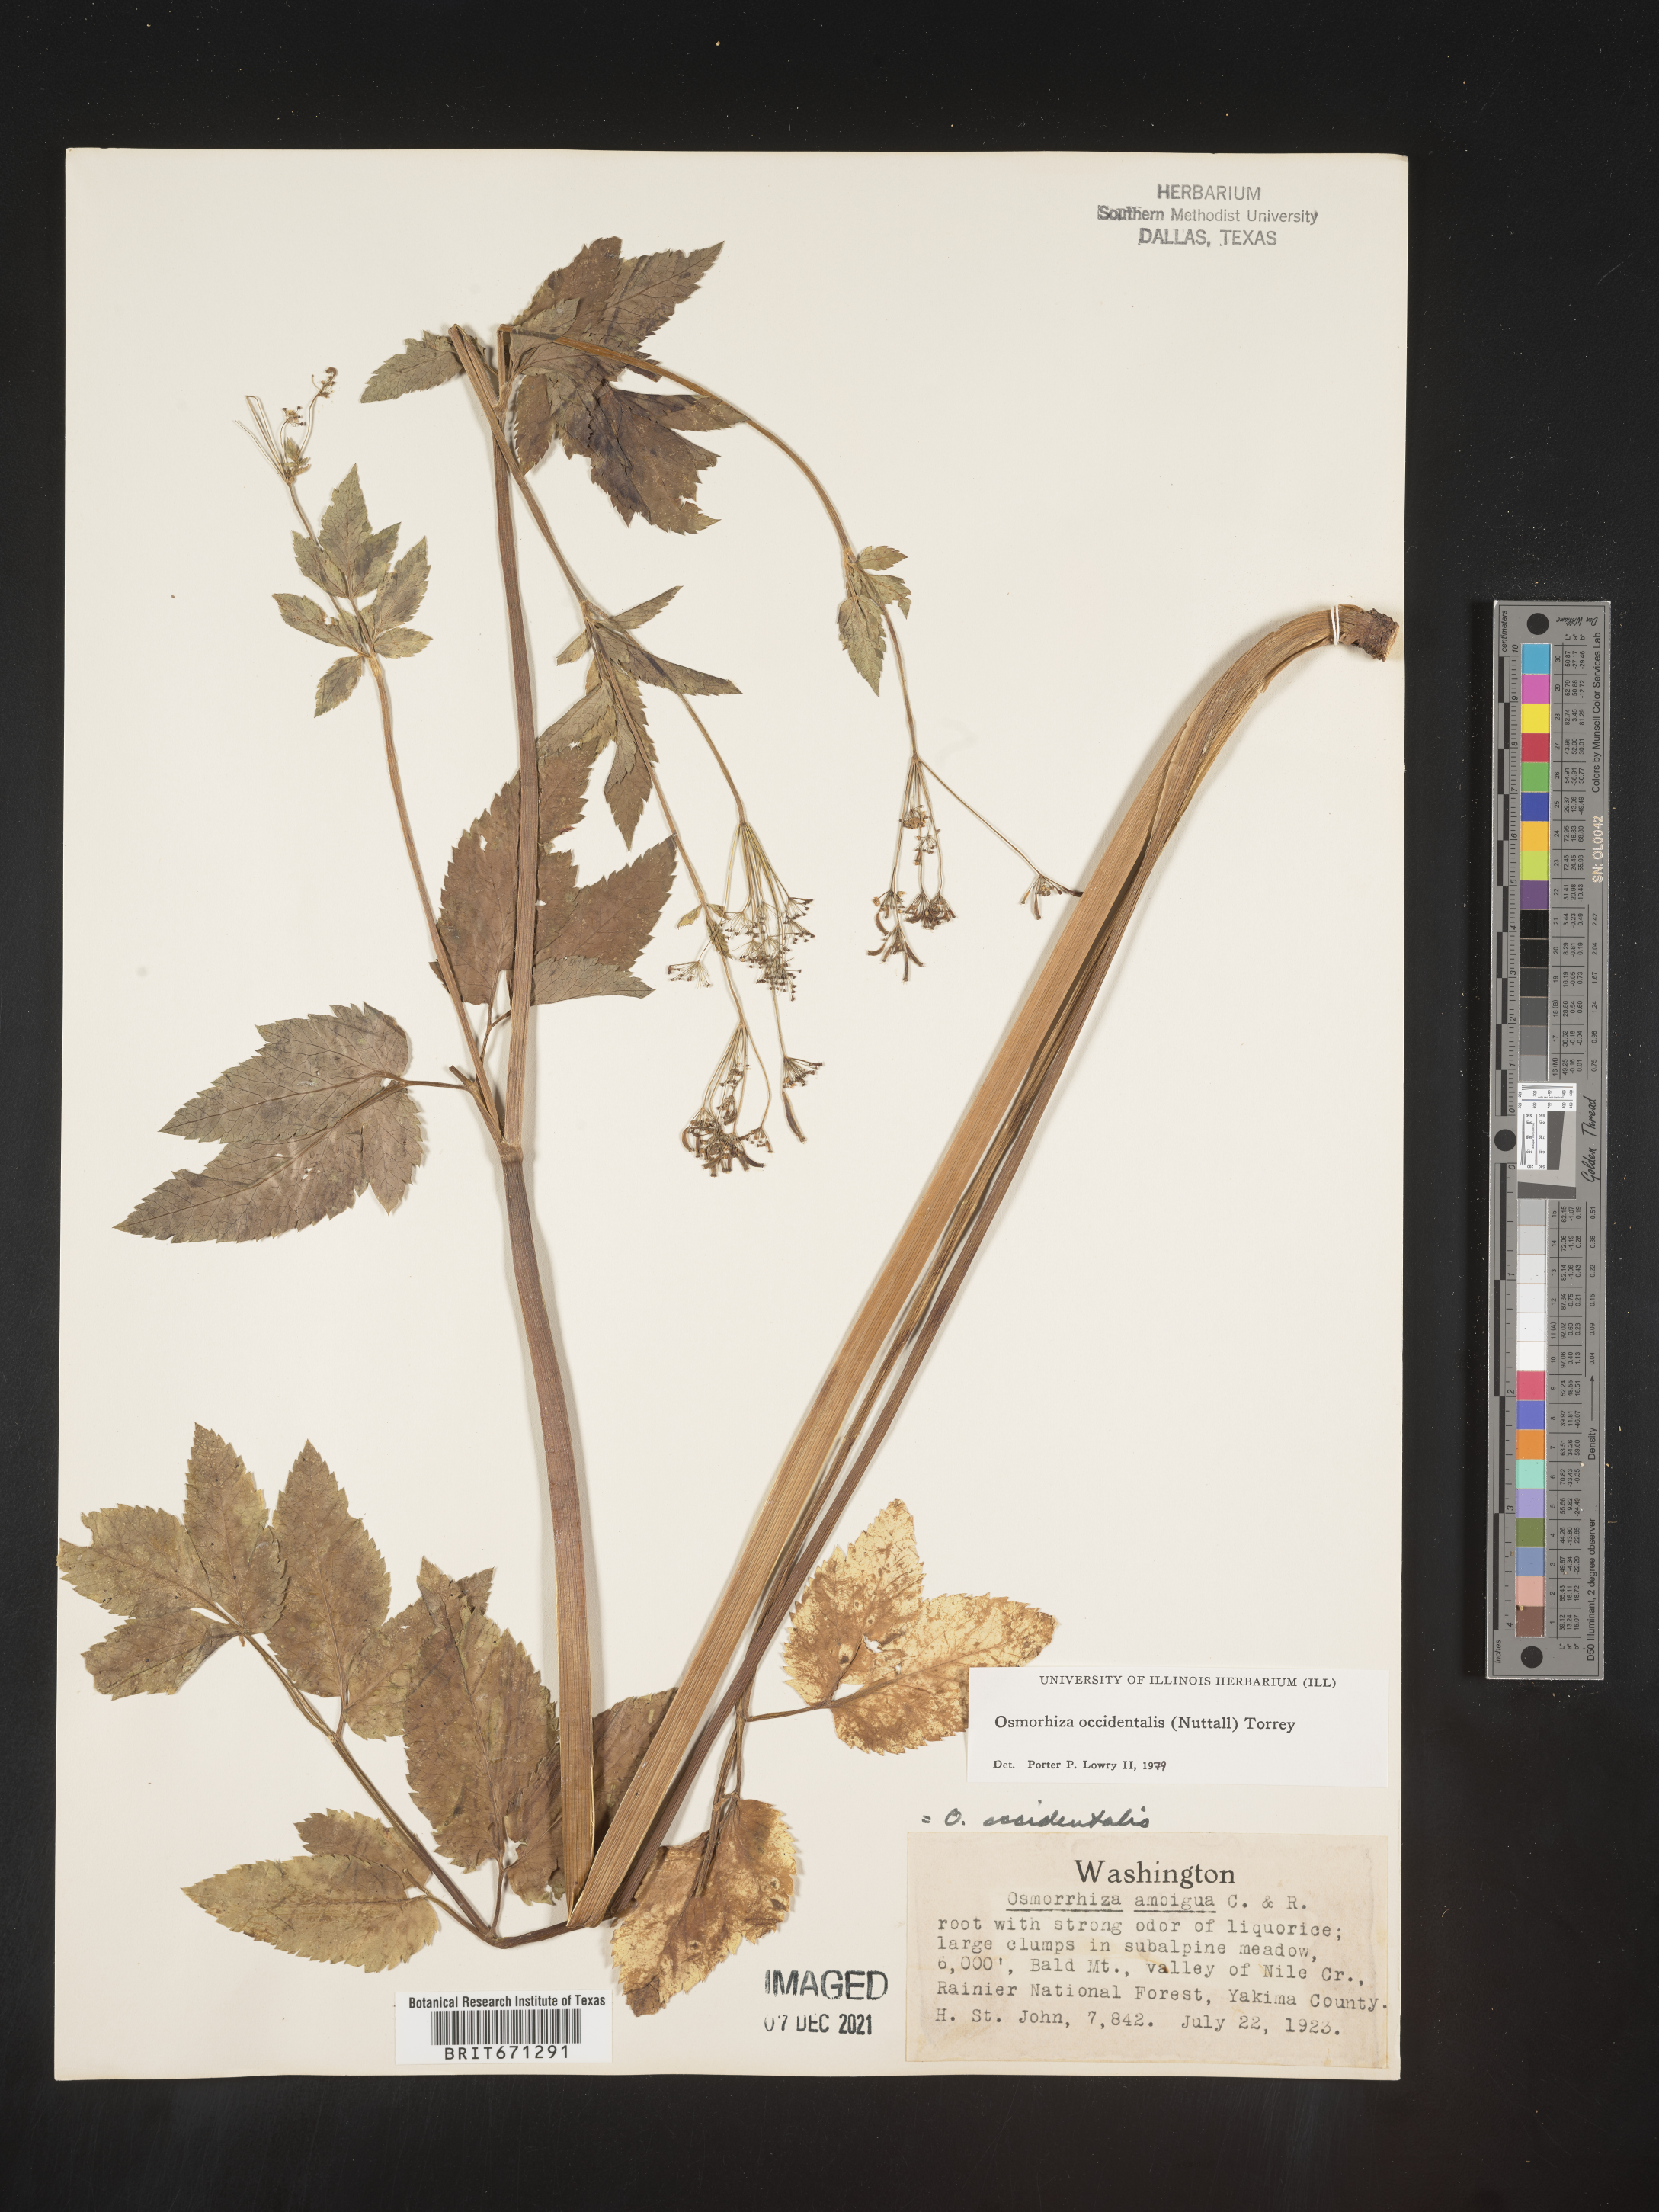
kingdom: Plantae
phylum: Tracheophyta
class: Magnoliopsida
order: Apiales
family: Apiaceae
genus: Osmorhiza
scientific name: Osmorhiza occidentalis
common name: Western sweet cicely
